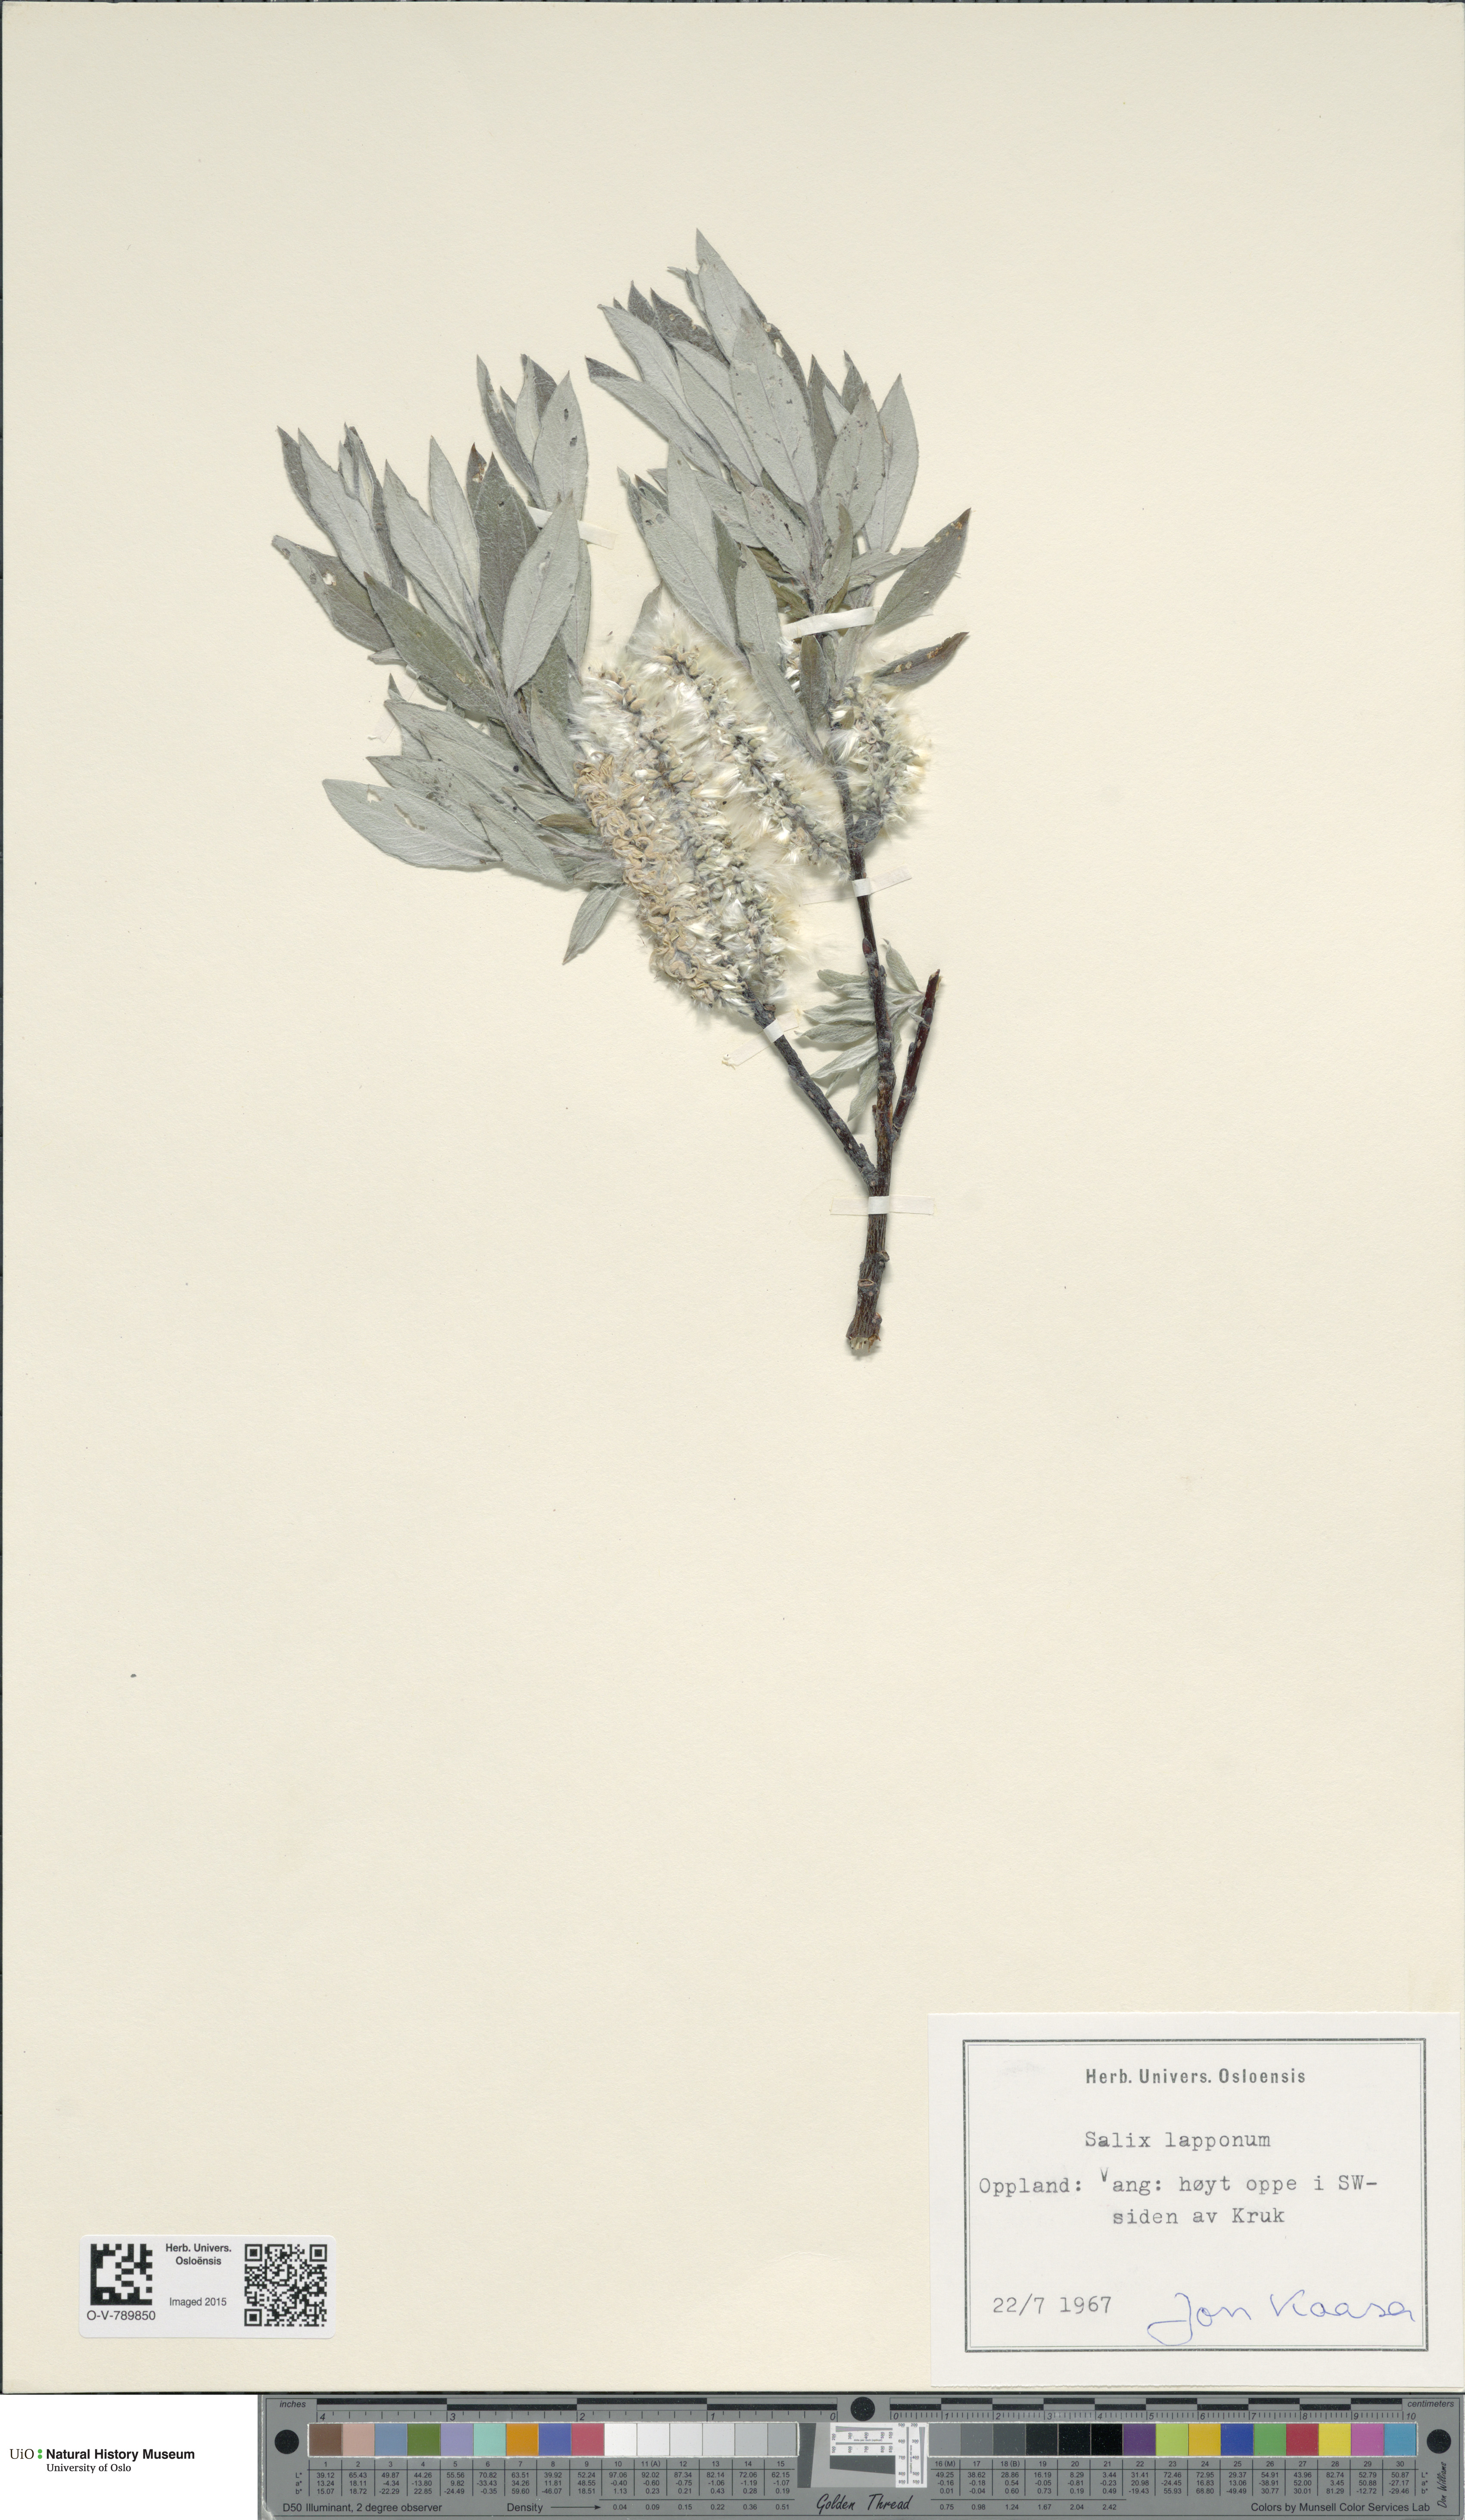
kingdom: Plantae
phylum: Tracheophyta
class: Magnoliopsida
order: Malpighiales
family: Salicaceae
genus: Salix
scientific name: Salix lapponum
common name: Downy willow
